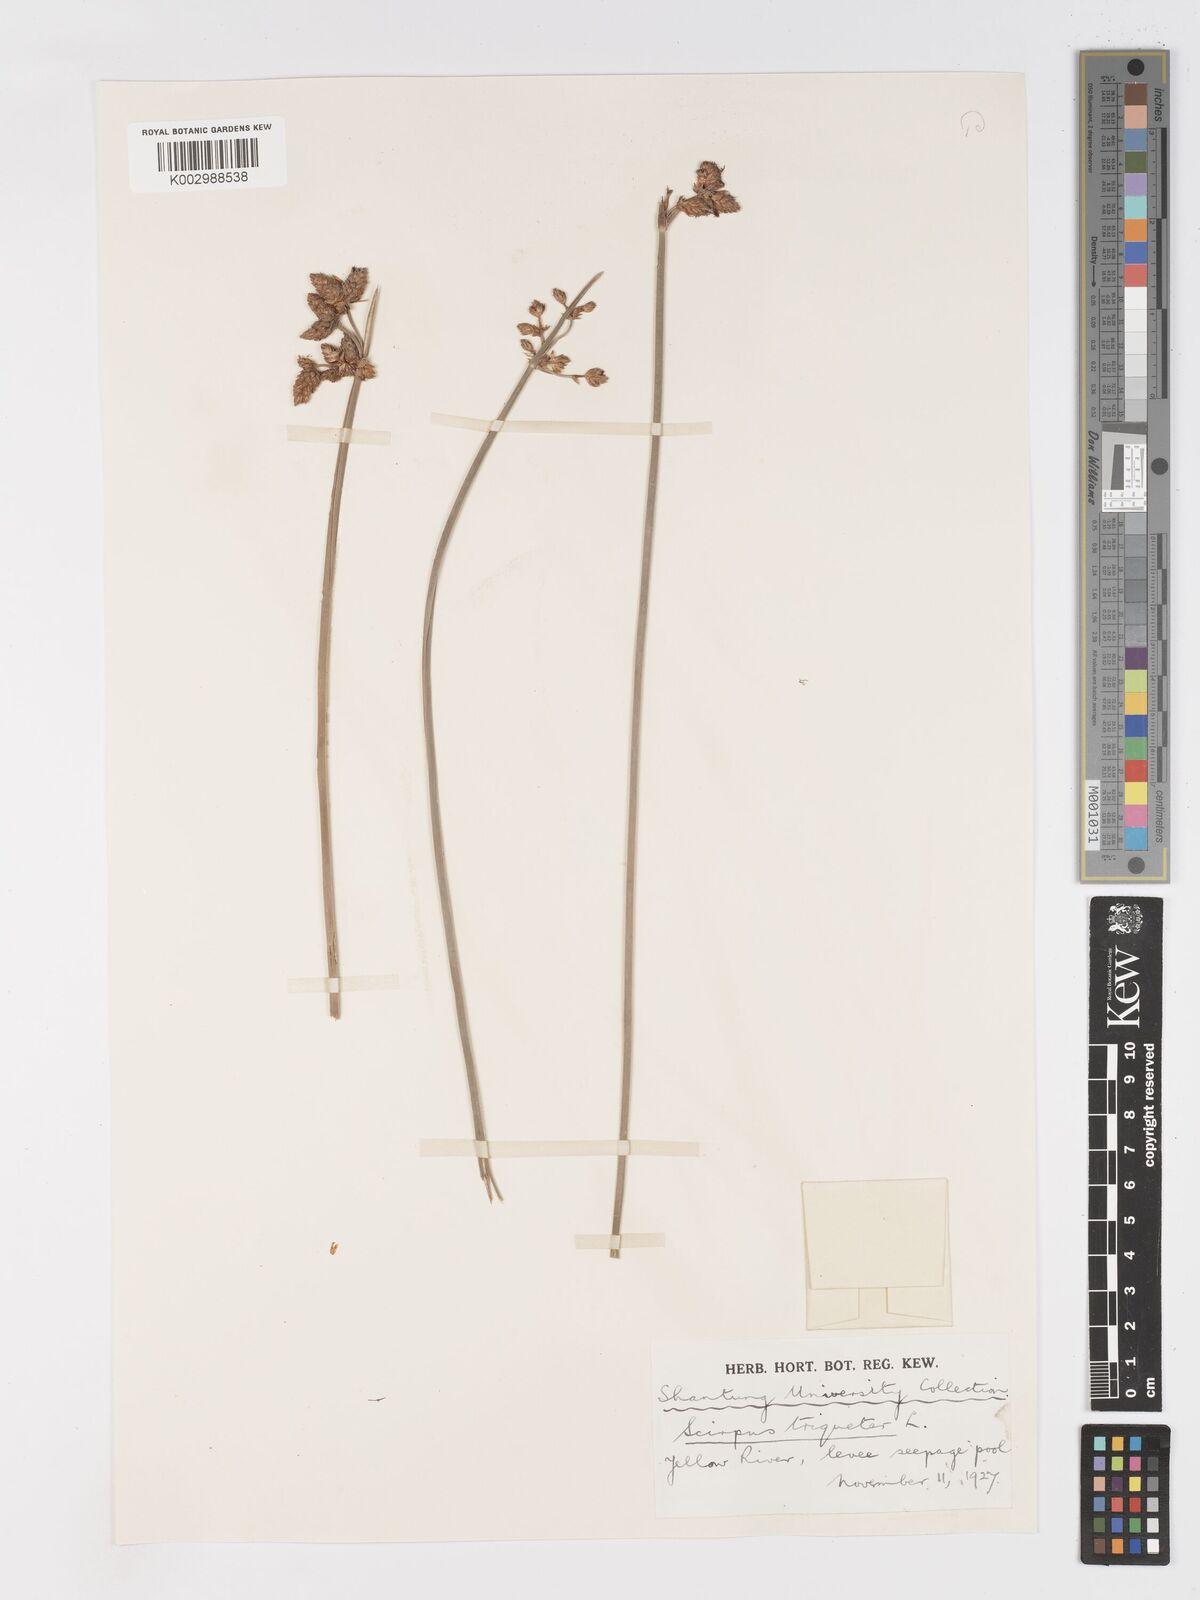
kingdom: Plantae
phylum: Tracheophyta
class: Liliopsida
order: Poales
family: Cyperaceae
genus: Schoenoplectus
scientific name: Schoenoplectus triqueter
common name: Triangular club-rush
